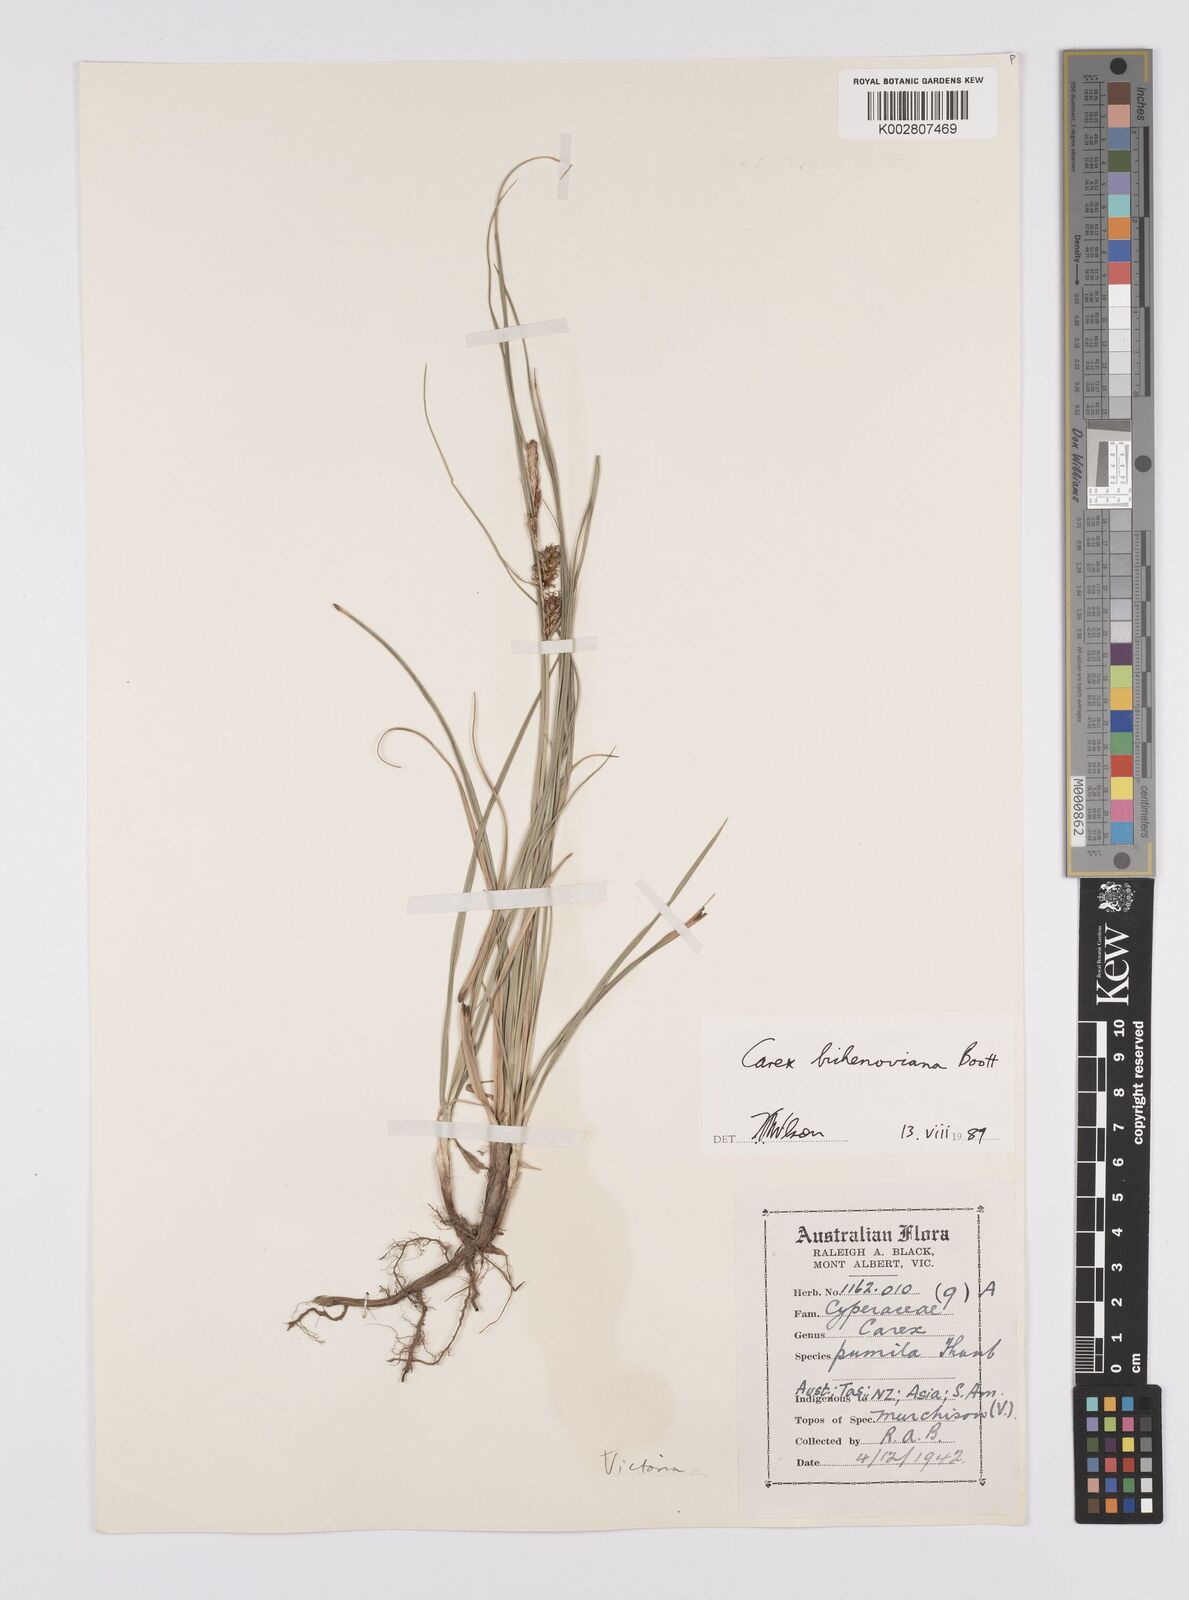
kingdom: Plantae
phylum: Tracheophyta
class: Liliopsida
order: Poales
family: Cyperaceae
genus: Carex
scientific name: Carex bichenoviana
